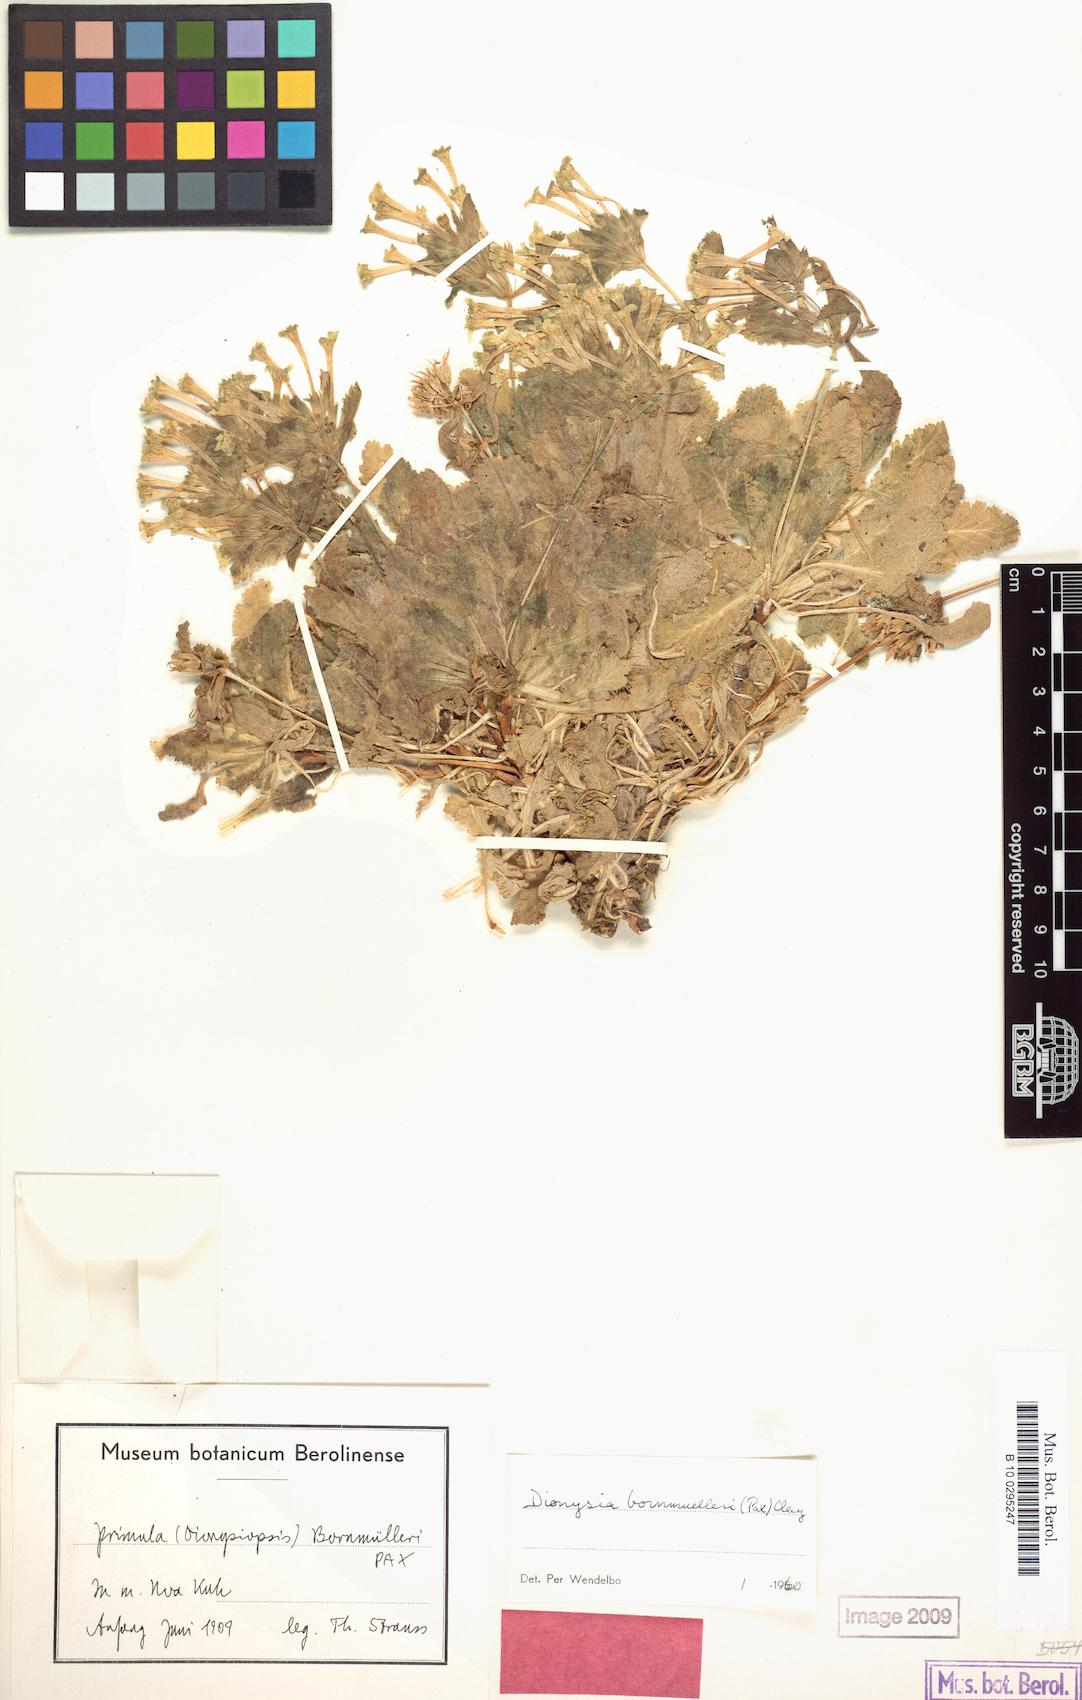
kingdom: Plantae
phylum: Tracheophyta
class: Magnoliopsida
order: Ericales
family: Primulaceae
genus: Dionysia
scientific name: Dionysia bornmuelleri
